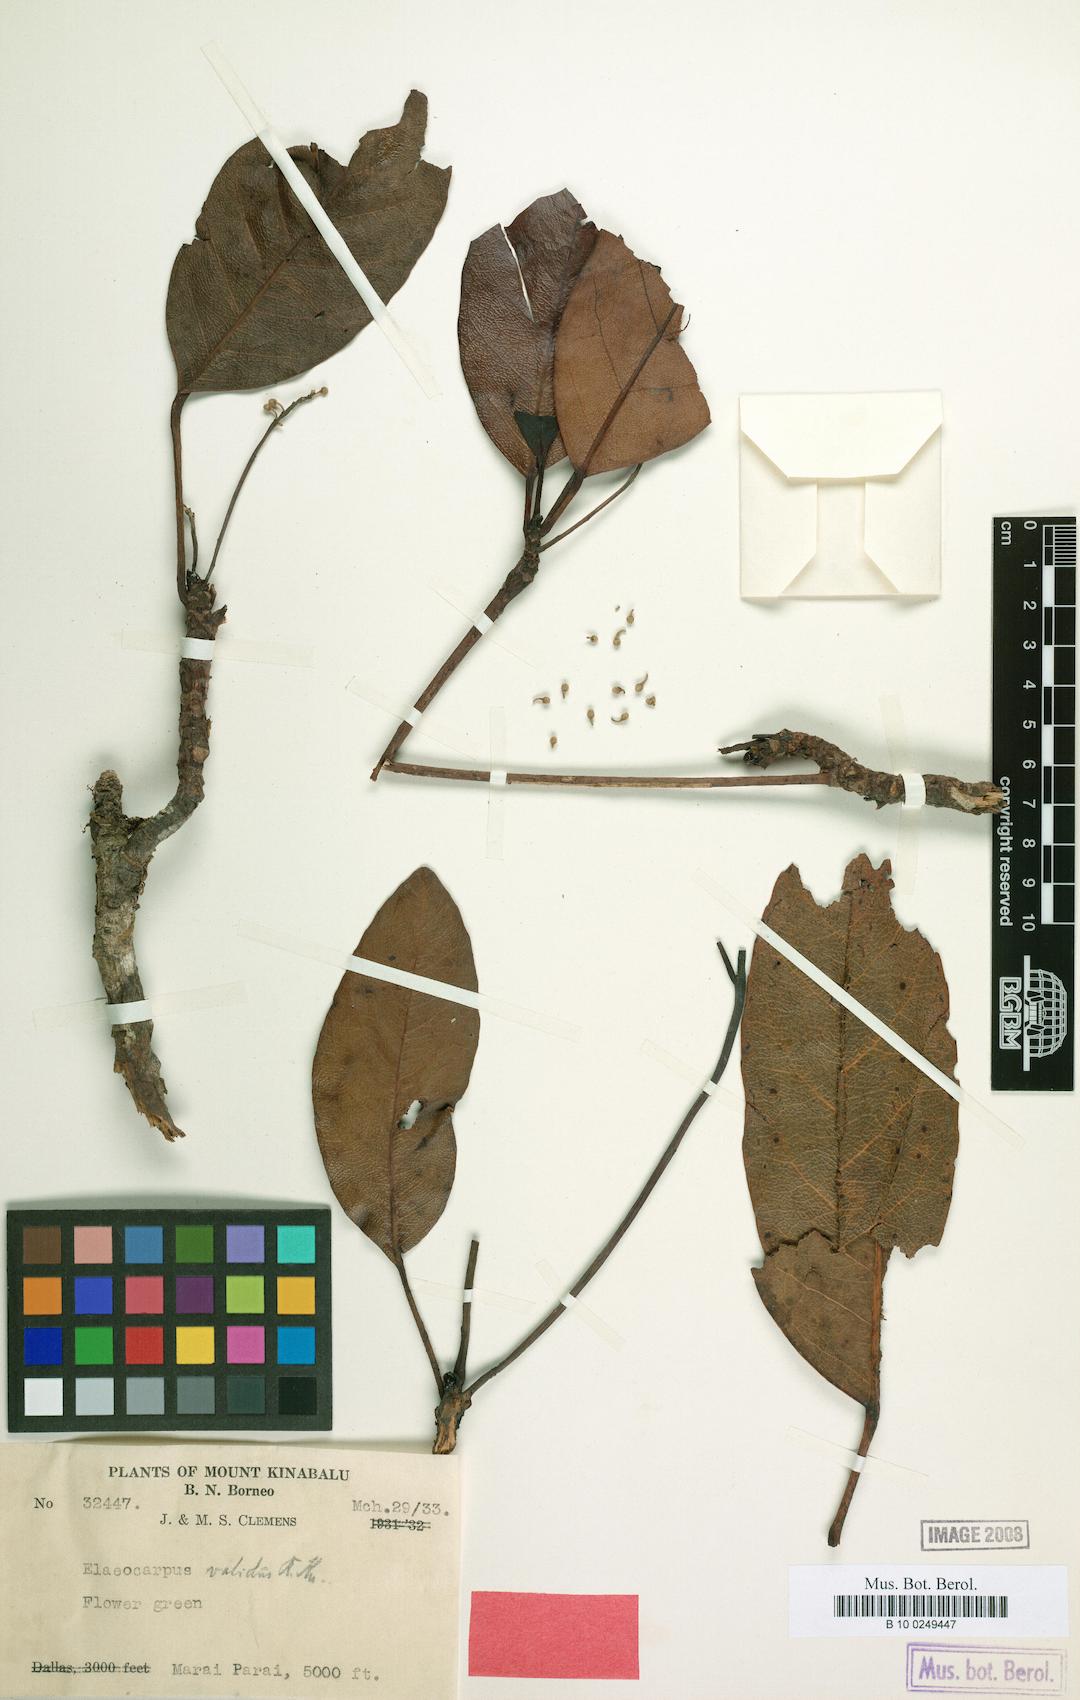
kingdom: Plantae
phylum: Tracheophyta
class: Magnoliopsida
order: Oxalidales
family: Elaeocarpaceae
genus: Elaeocarpus
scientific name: Elaeocarpus validus
